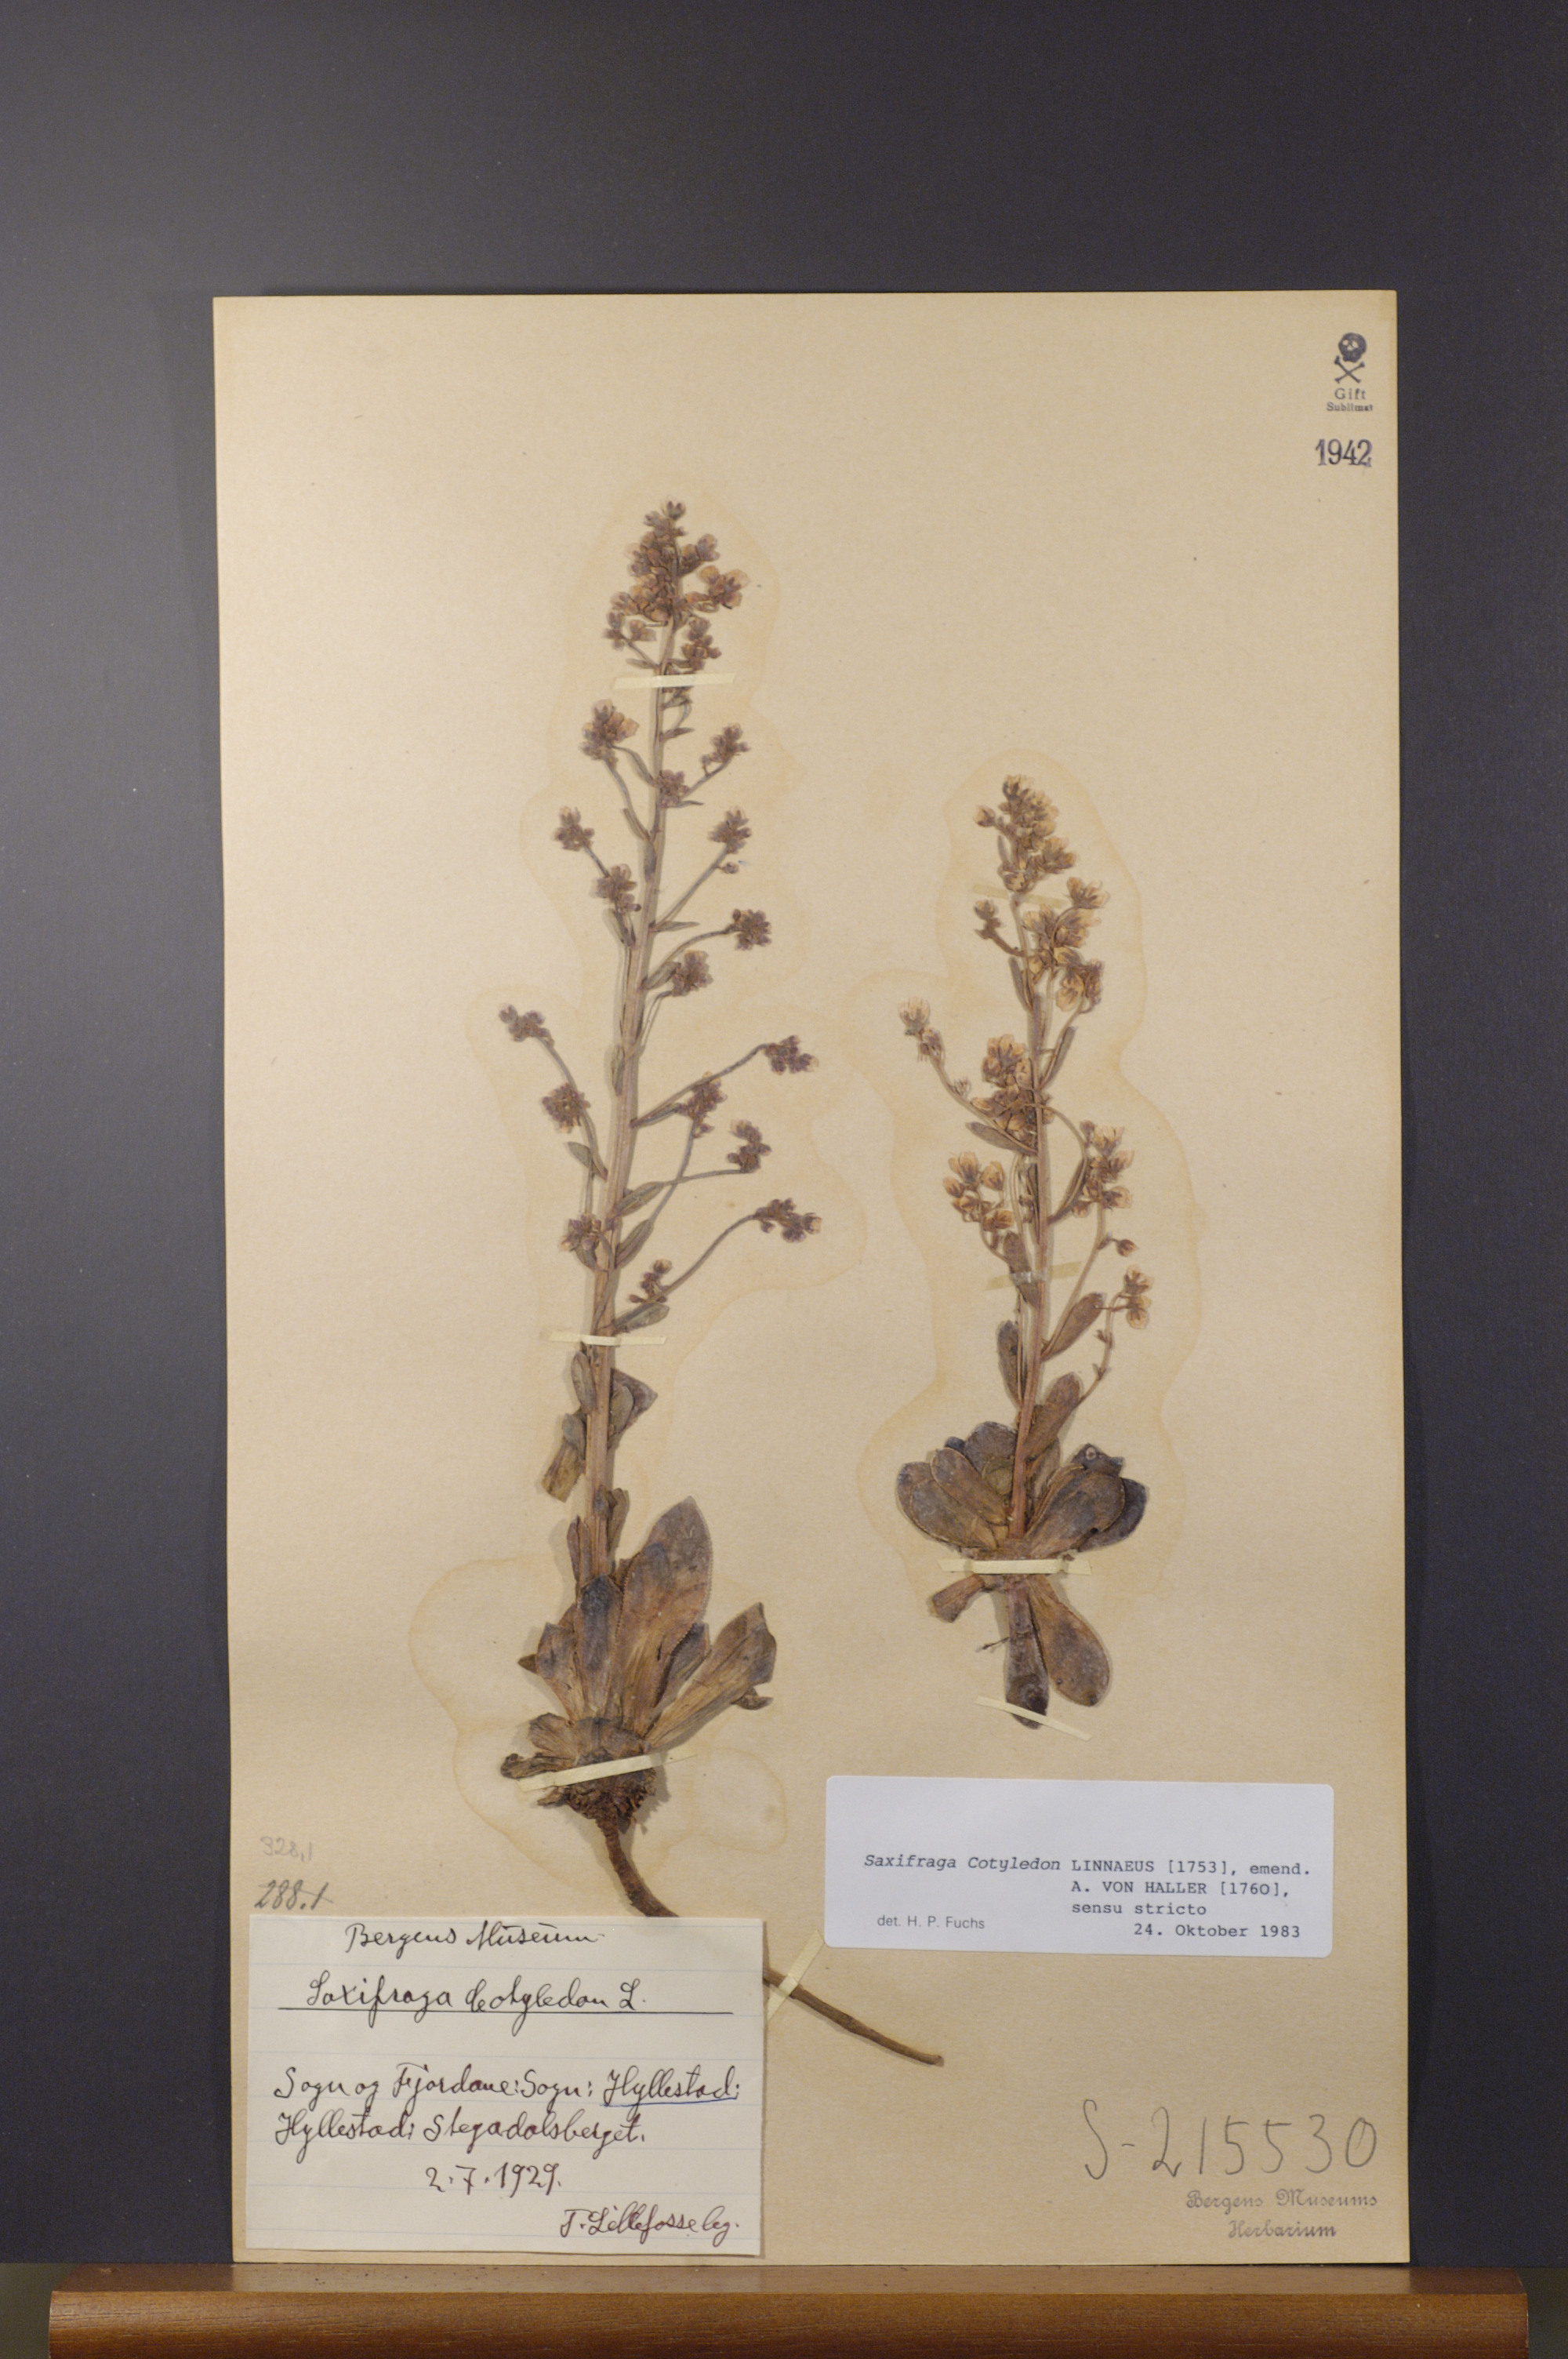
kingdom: Plantae
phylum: Tracheophyta
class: Magnoliopsida
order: Saxifragales
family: Saxifragaceae
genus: Saxifraga
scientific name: Saxifraga cotyledon
